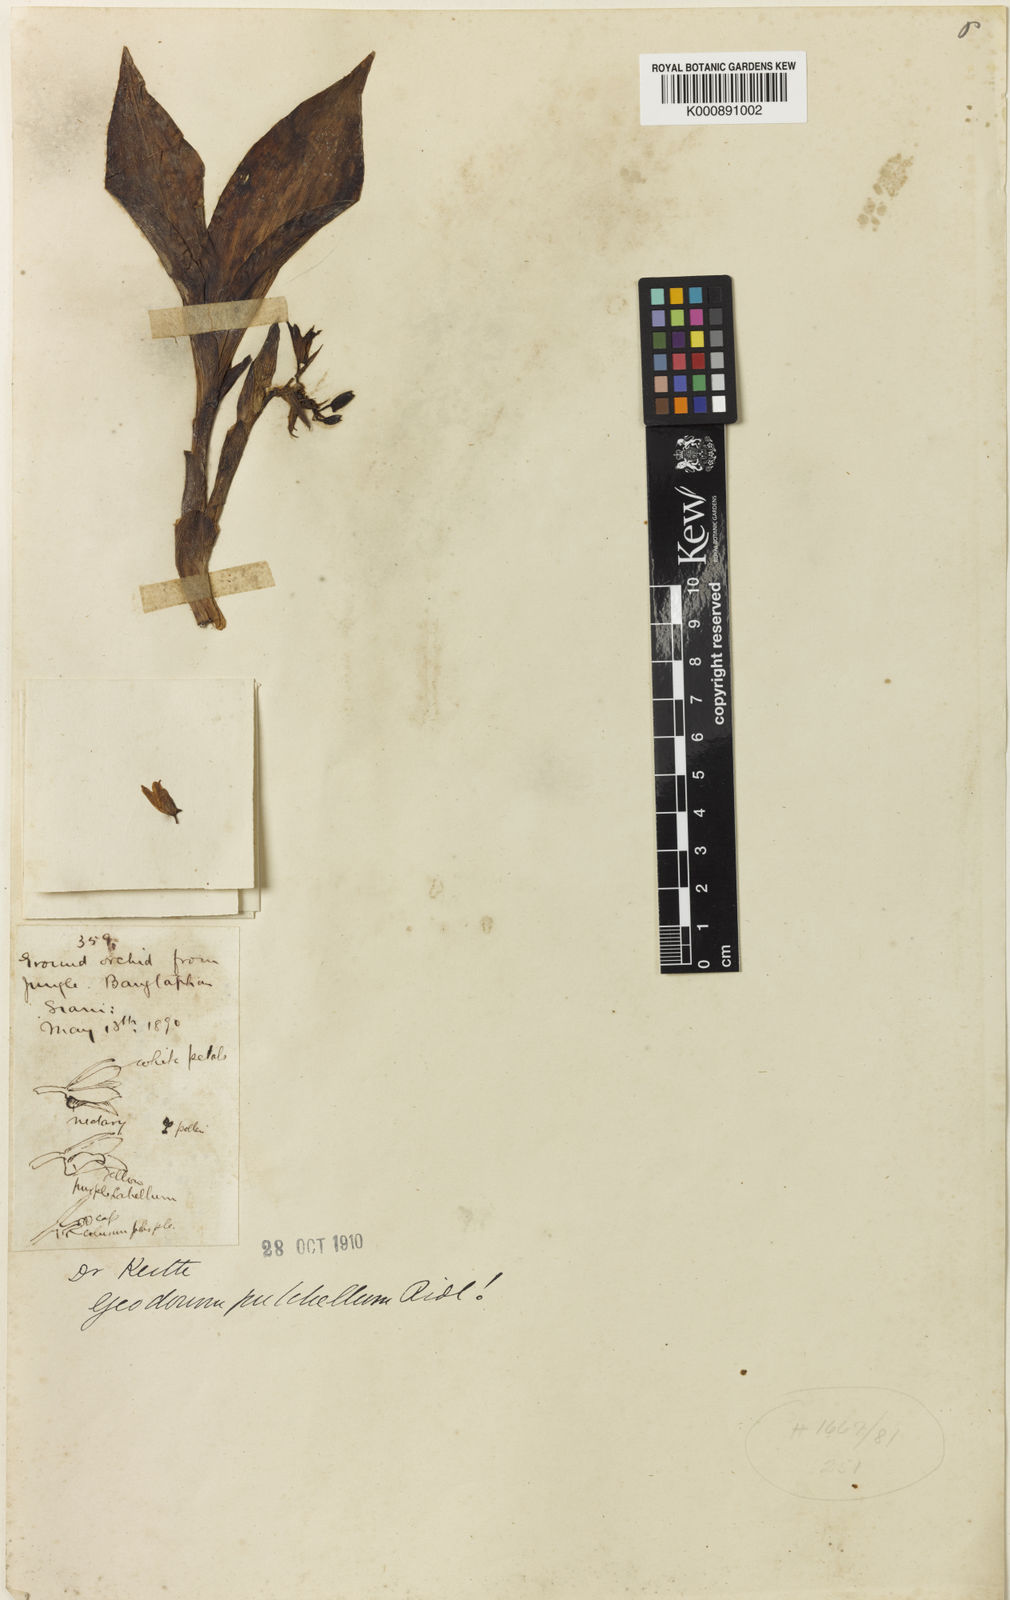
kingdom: Plantae
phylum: Tracheophyta
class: Liliopsida
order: Asparagales
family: Orchidaceae
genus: Eulophia
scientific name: Eulophia recurva
